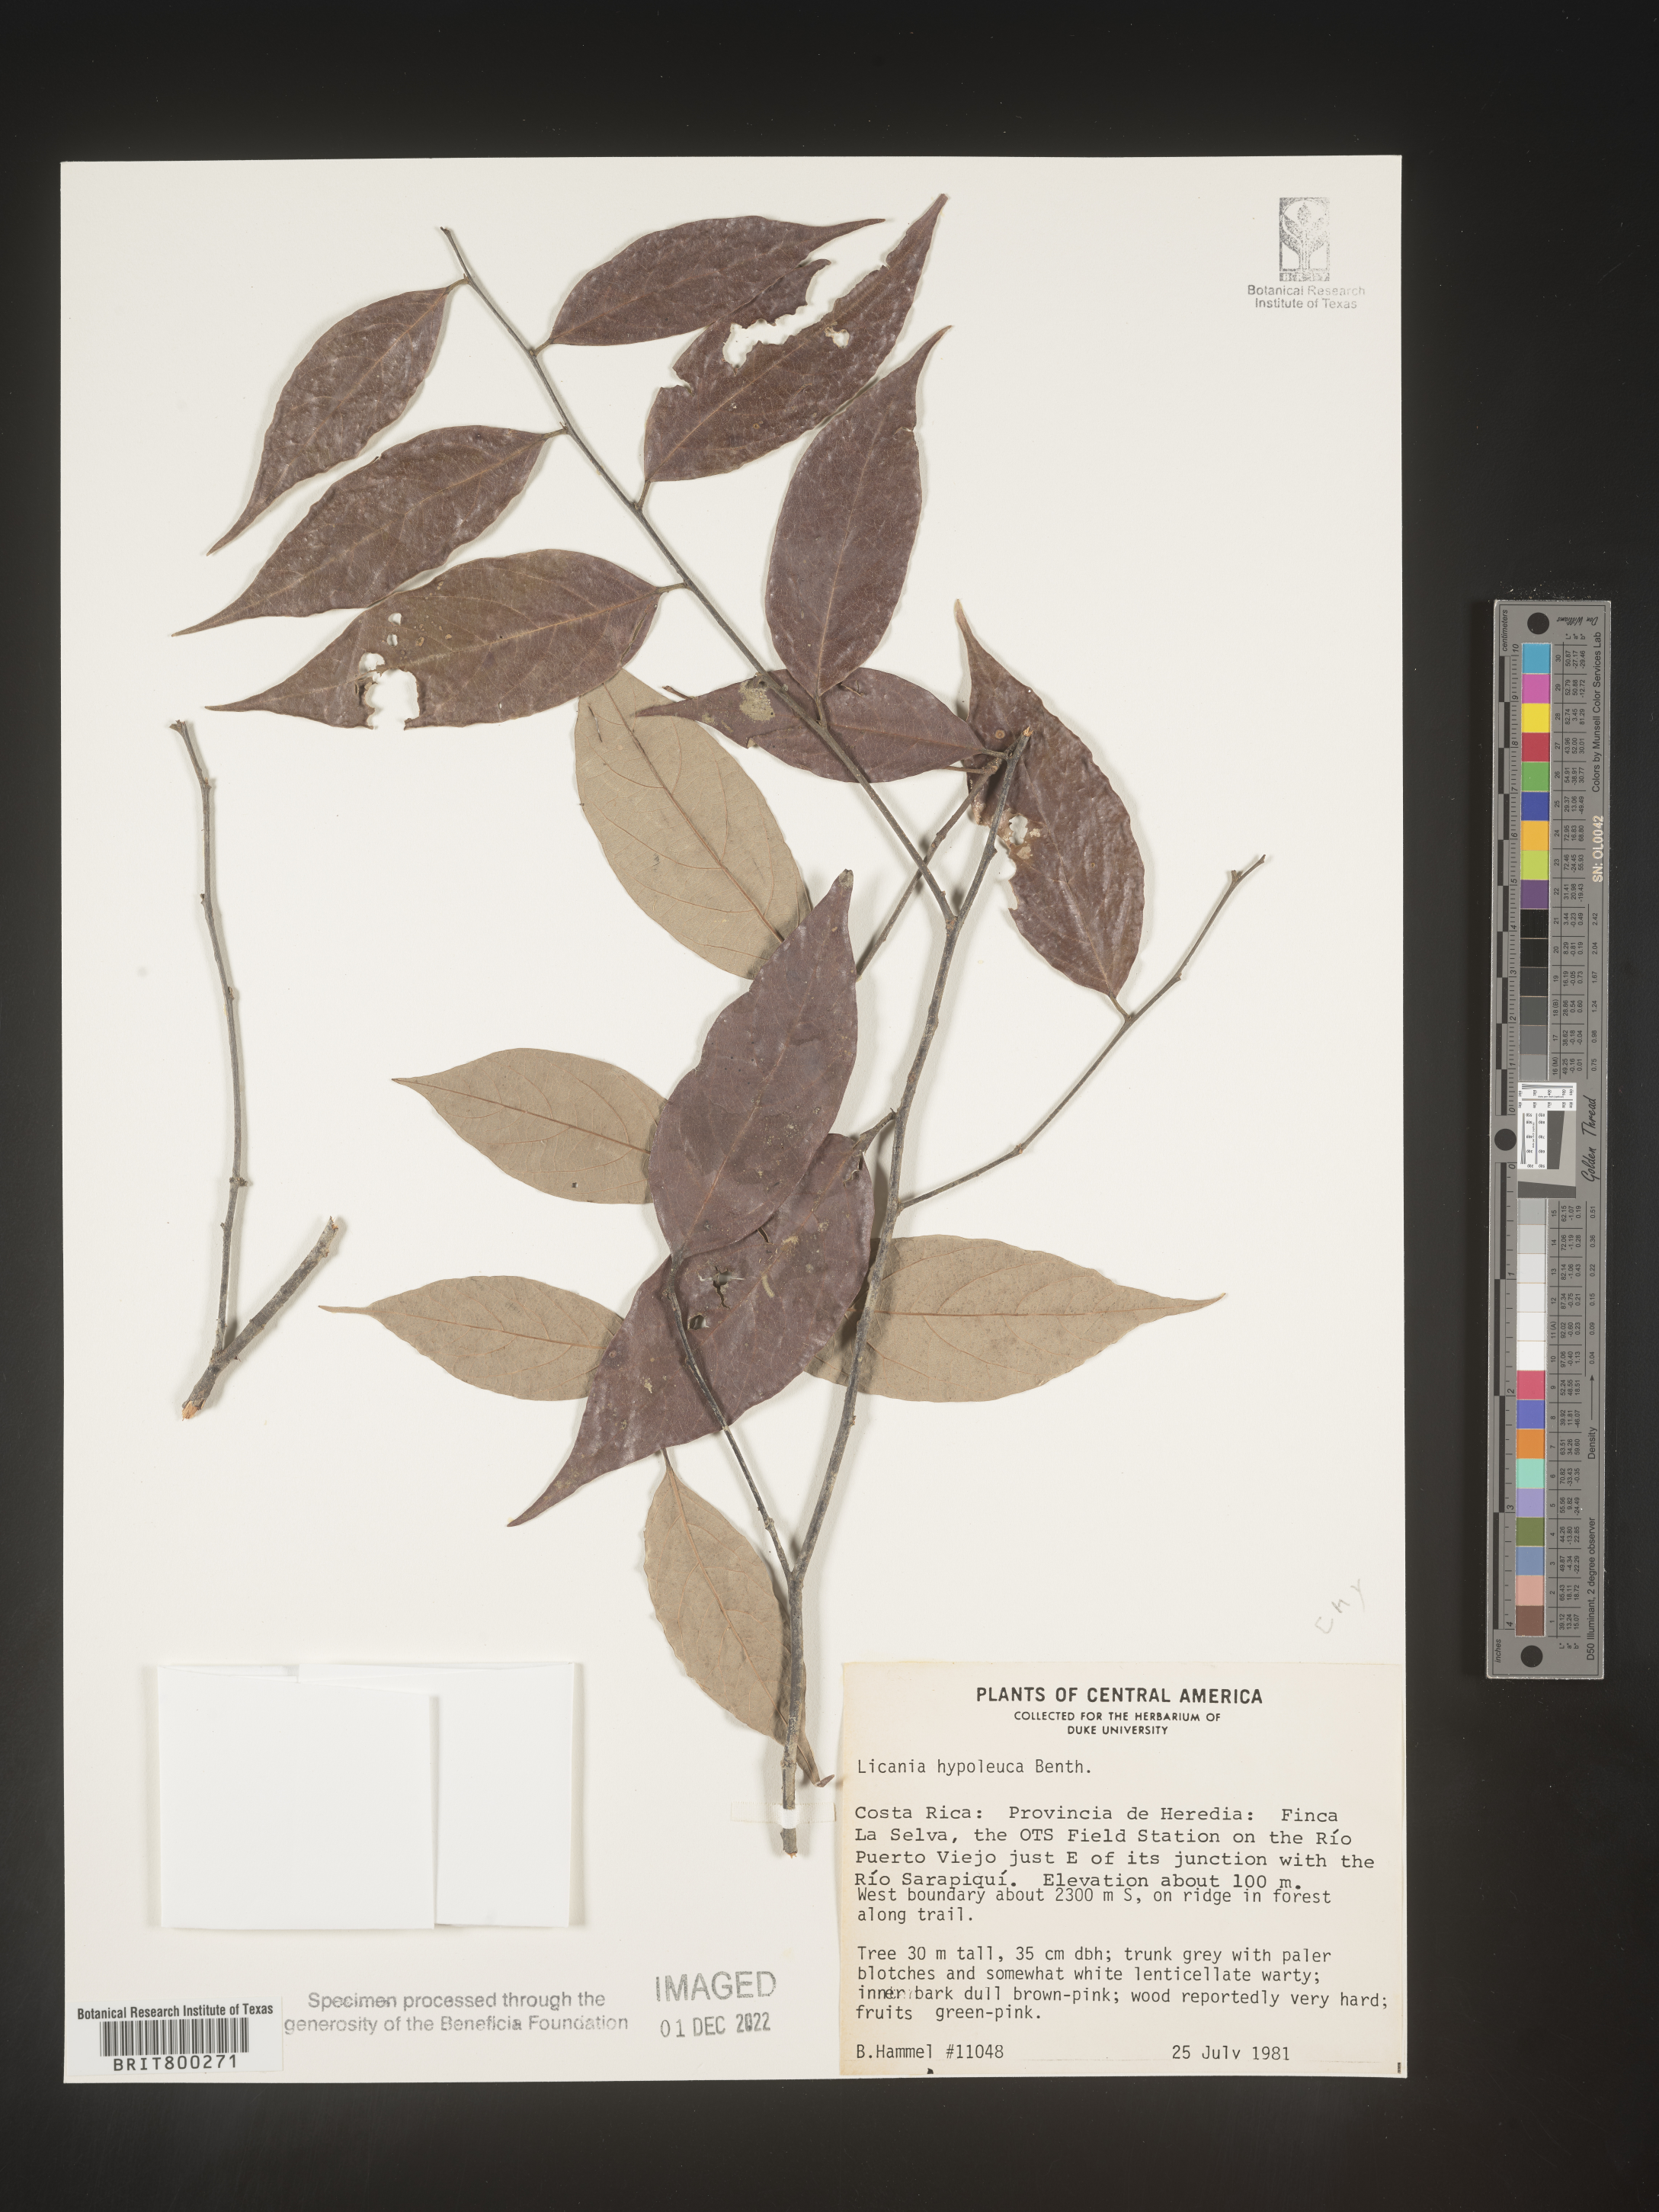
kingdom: Plantae
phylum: Tracheophyta
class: Magnoliopsida
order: Malpighiales
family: Chrysobalanaceae
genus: Geobalanus
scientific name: Geobalanus oblongifolius
